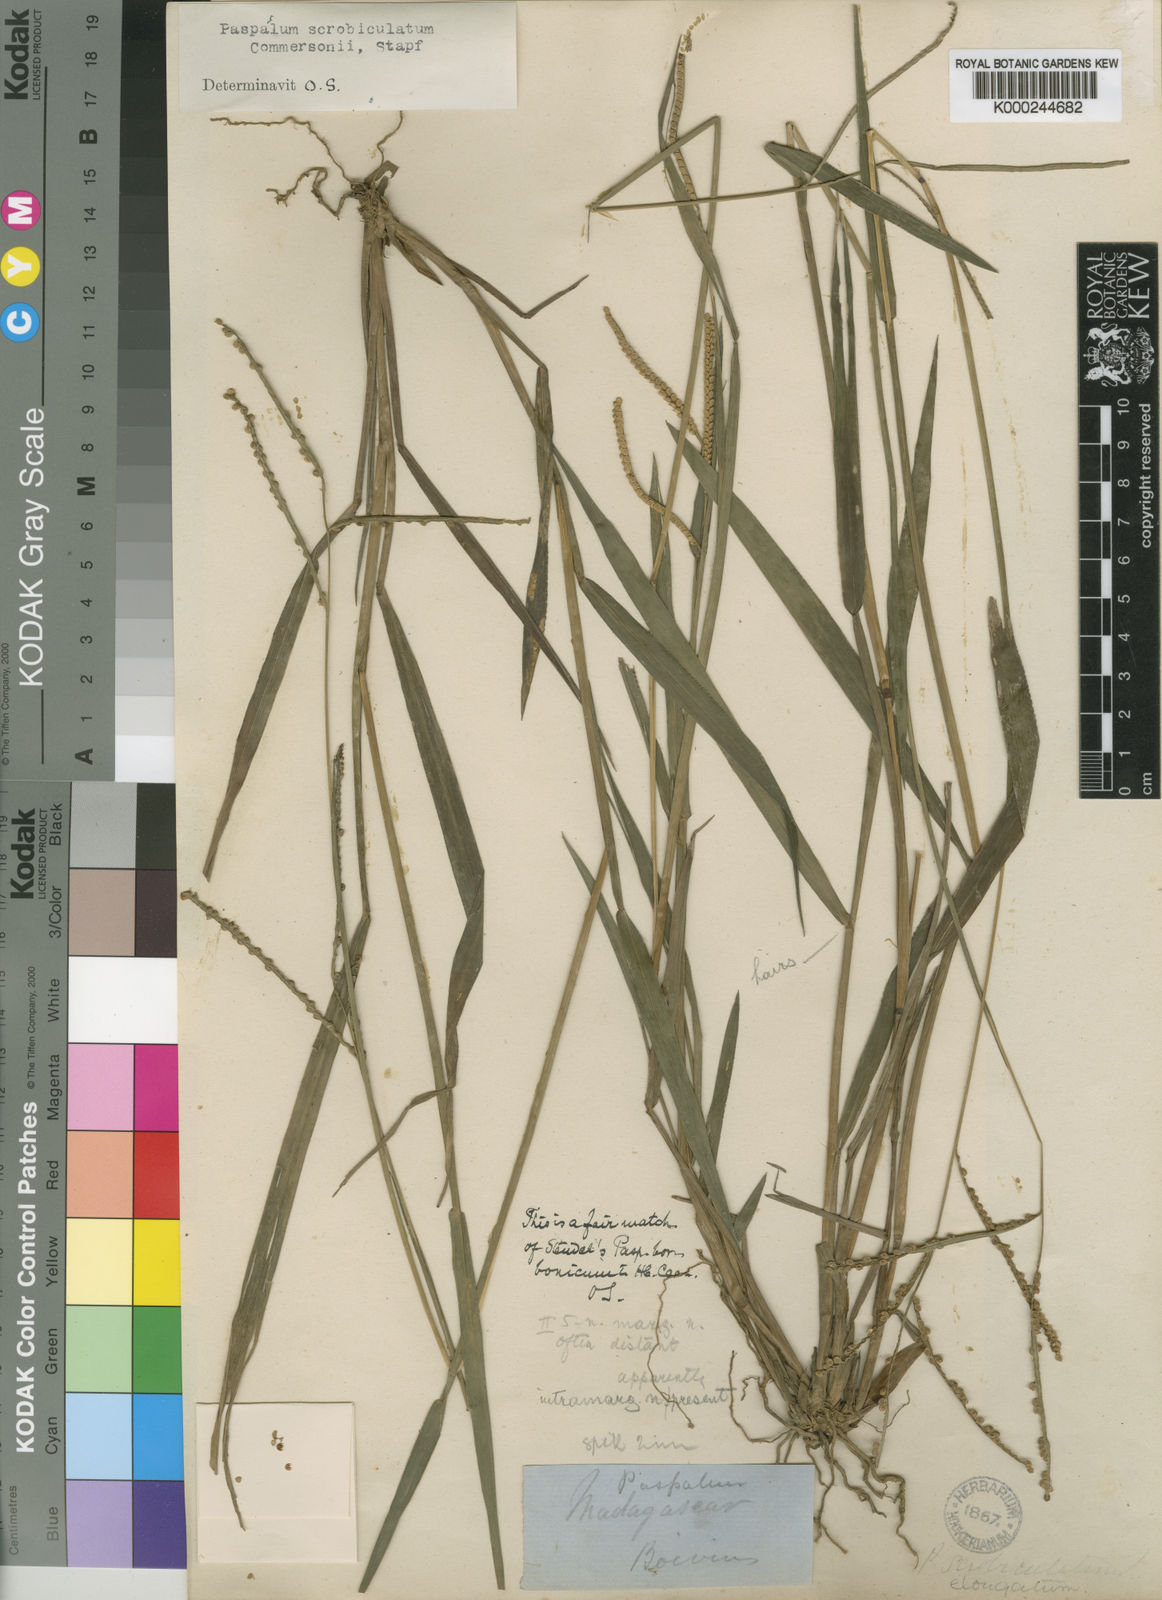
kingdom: Plantae
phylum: Tracheophyta
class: Liliopsida
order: Poales
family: Poaceae
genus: Paspalum
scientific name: Paspalum scrobiculatum
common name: Kodo millet
